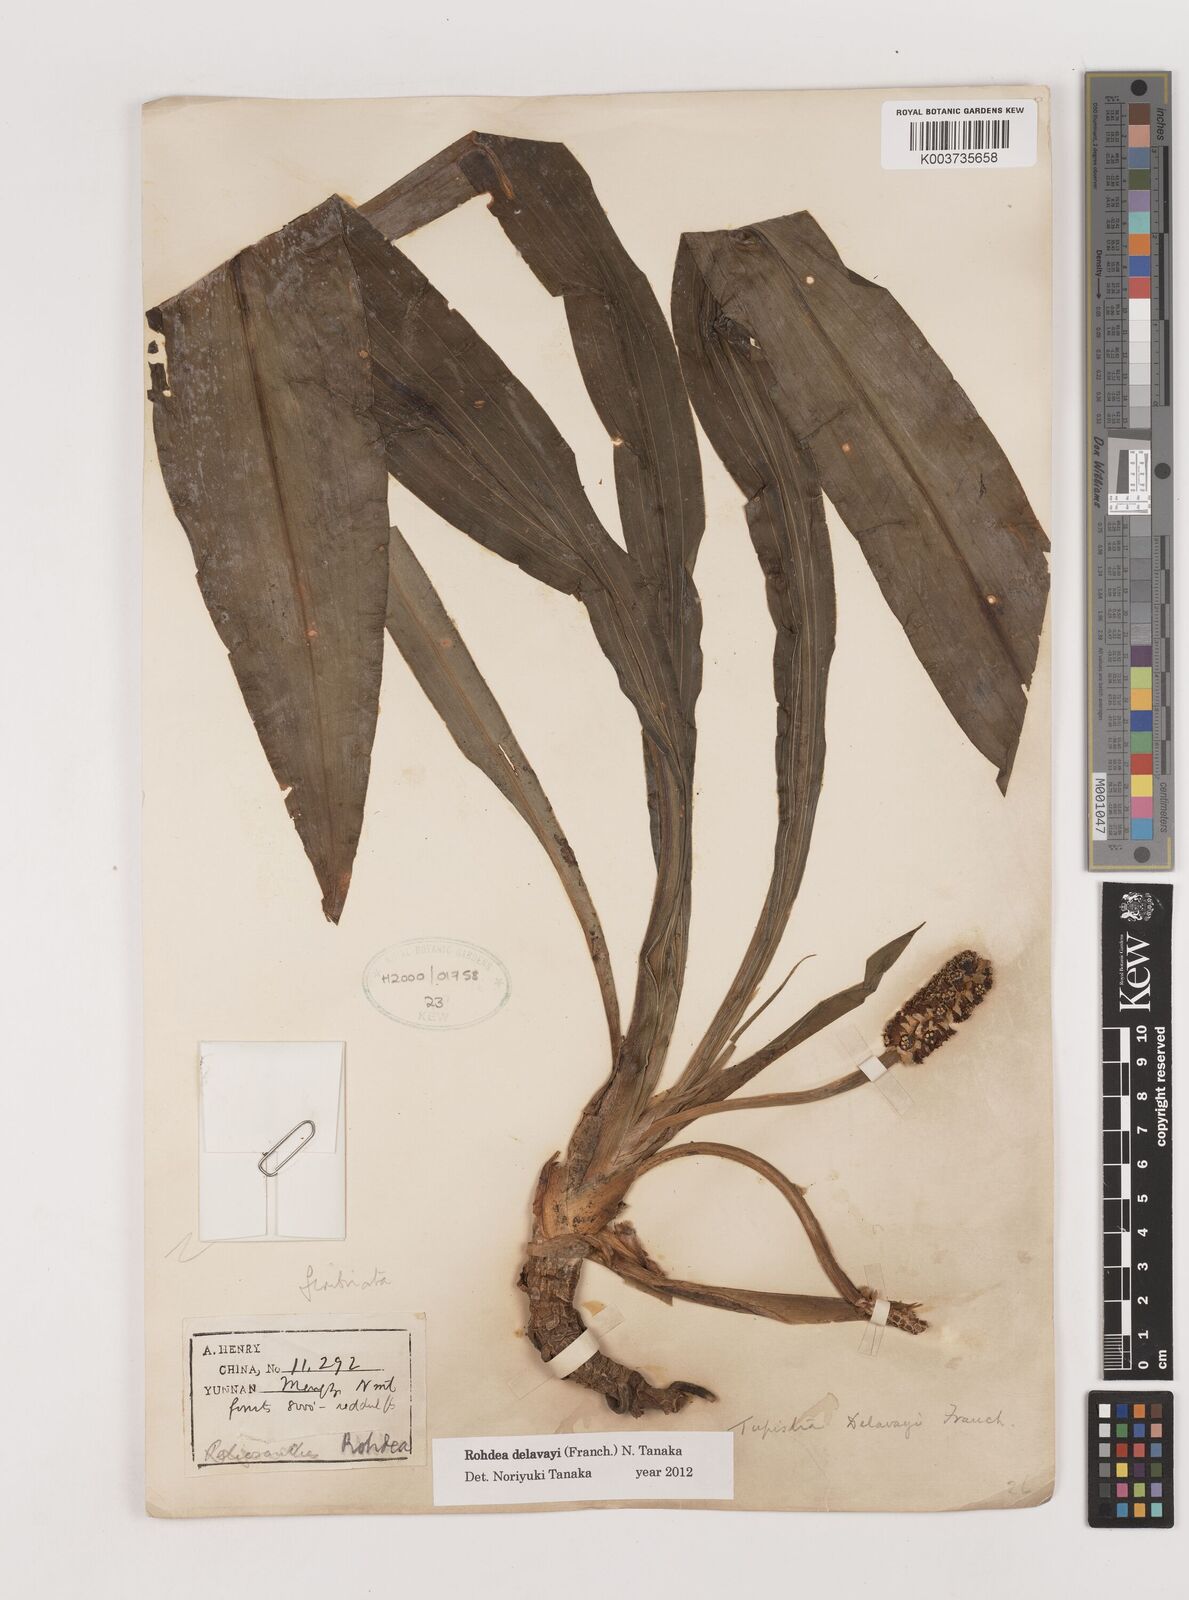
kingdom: Plantae
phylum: Tracheophyta
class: Liliopsida
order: Asparagales
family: Asparagaceae
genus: Rohdea
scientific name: Rohdea delavayi
